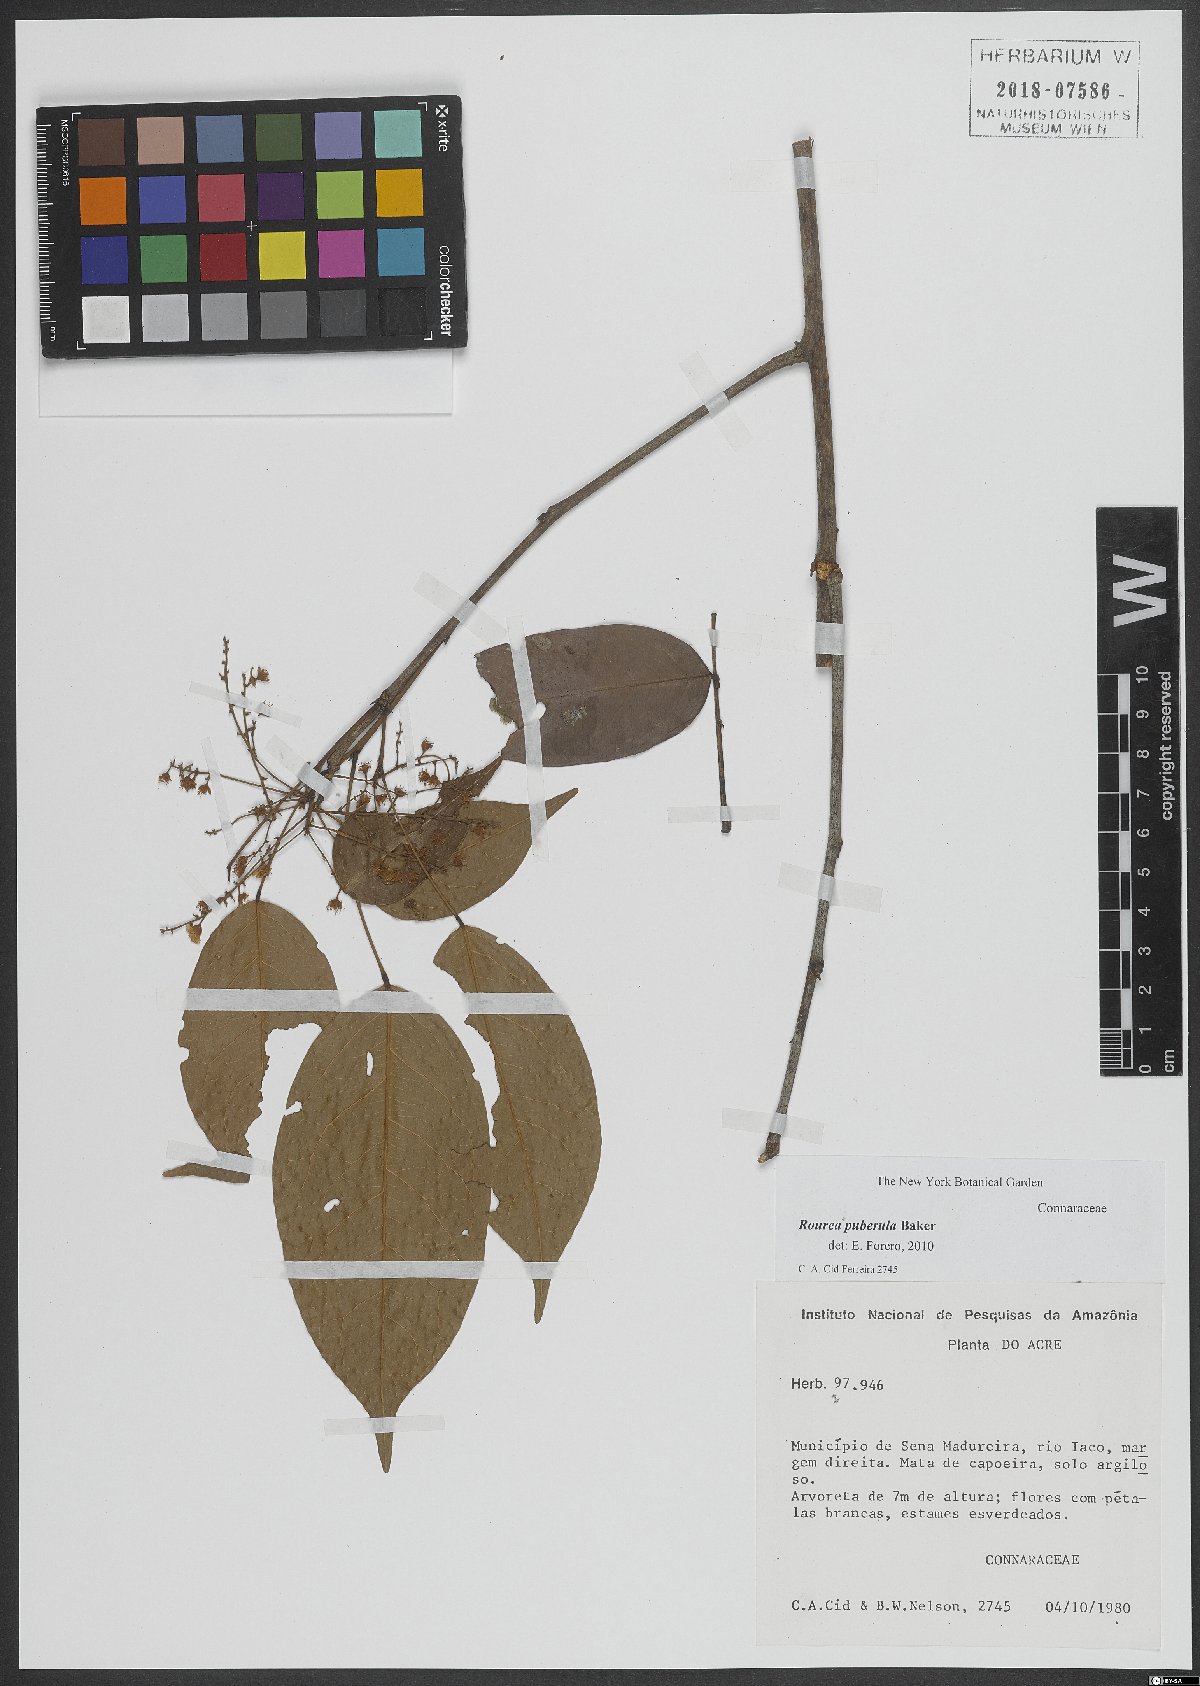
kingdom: Plantae
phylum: Tracheophyta
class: Magnoliopsida
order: Oxalidales
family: Connaraceae
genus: Rourea
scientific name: Rourea puberula
